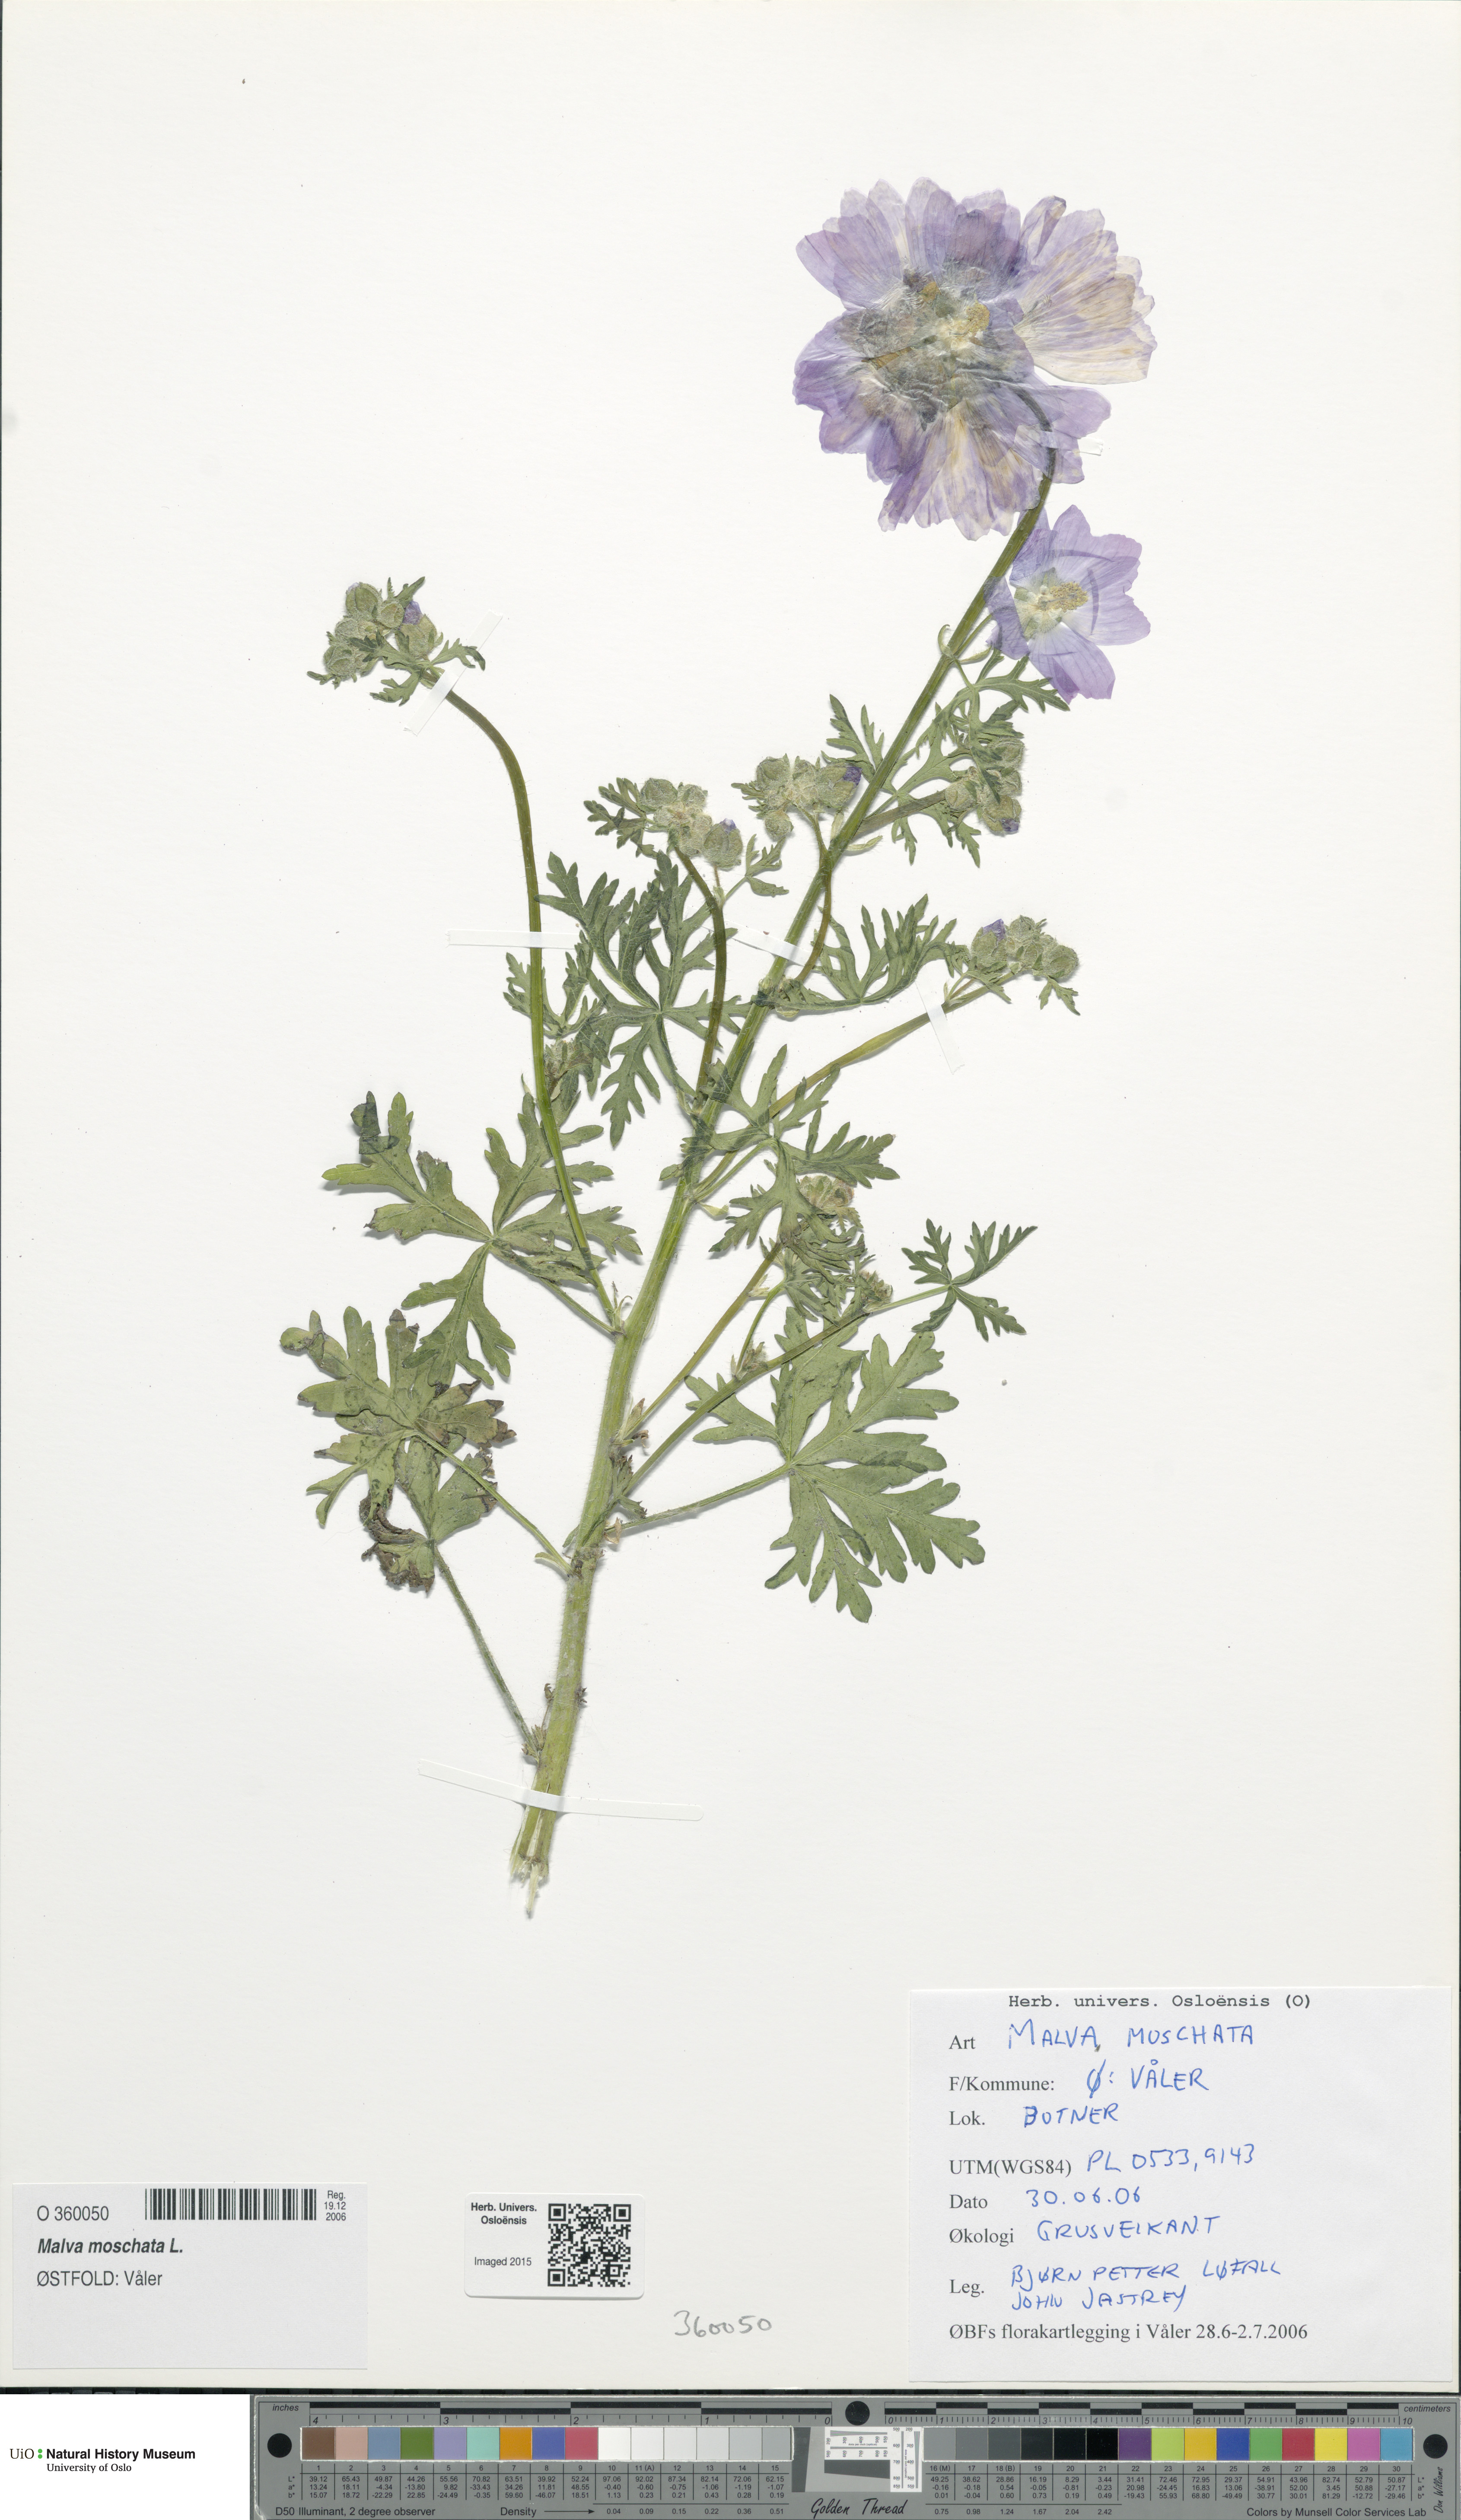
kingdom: Plantae
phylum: Tracheophyta
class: Magnoliopsida
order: Malvales
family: Malvaceae
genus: Malva
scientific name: Malva moschata
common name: Musk mallow
